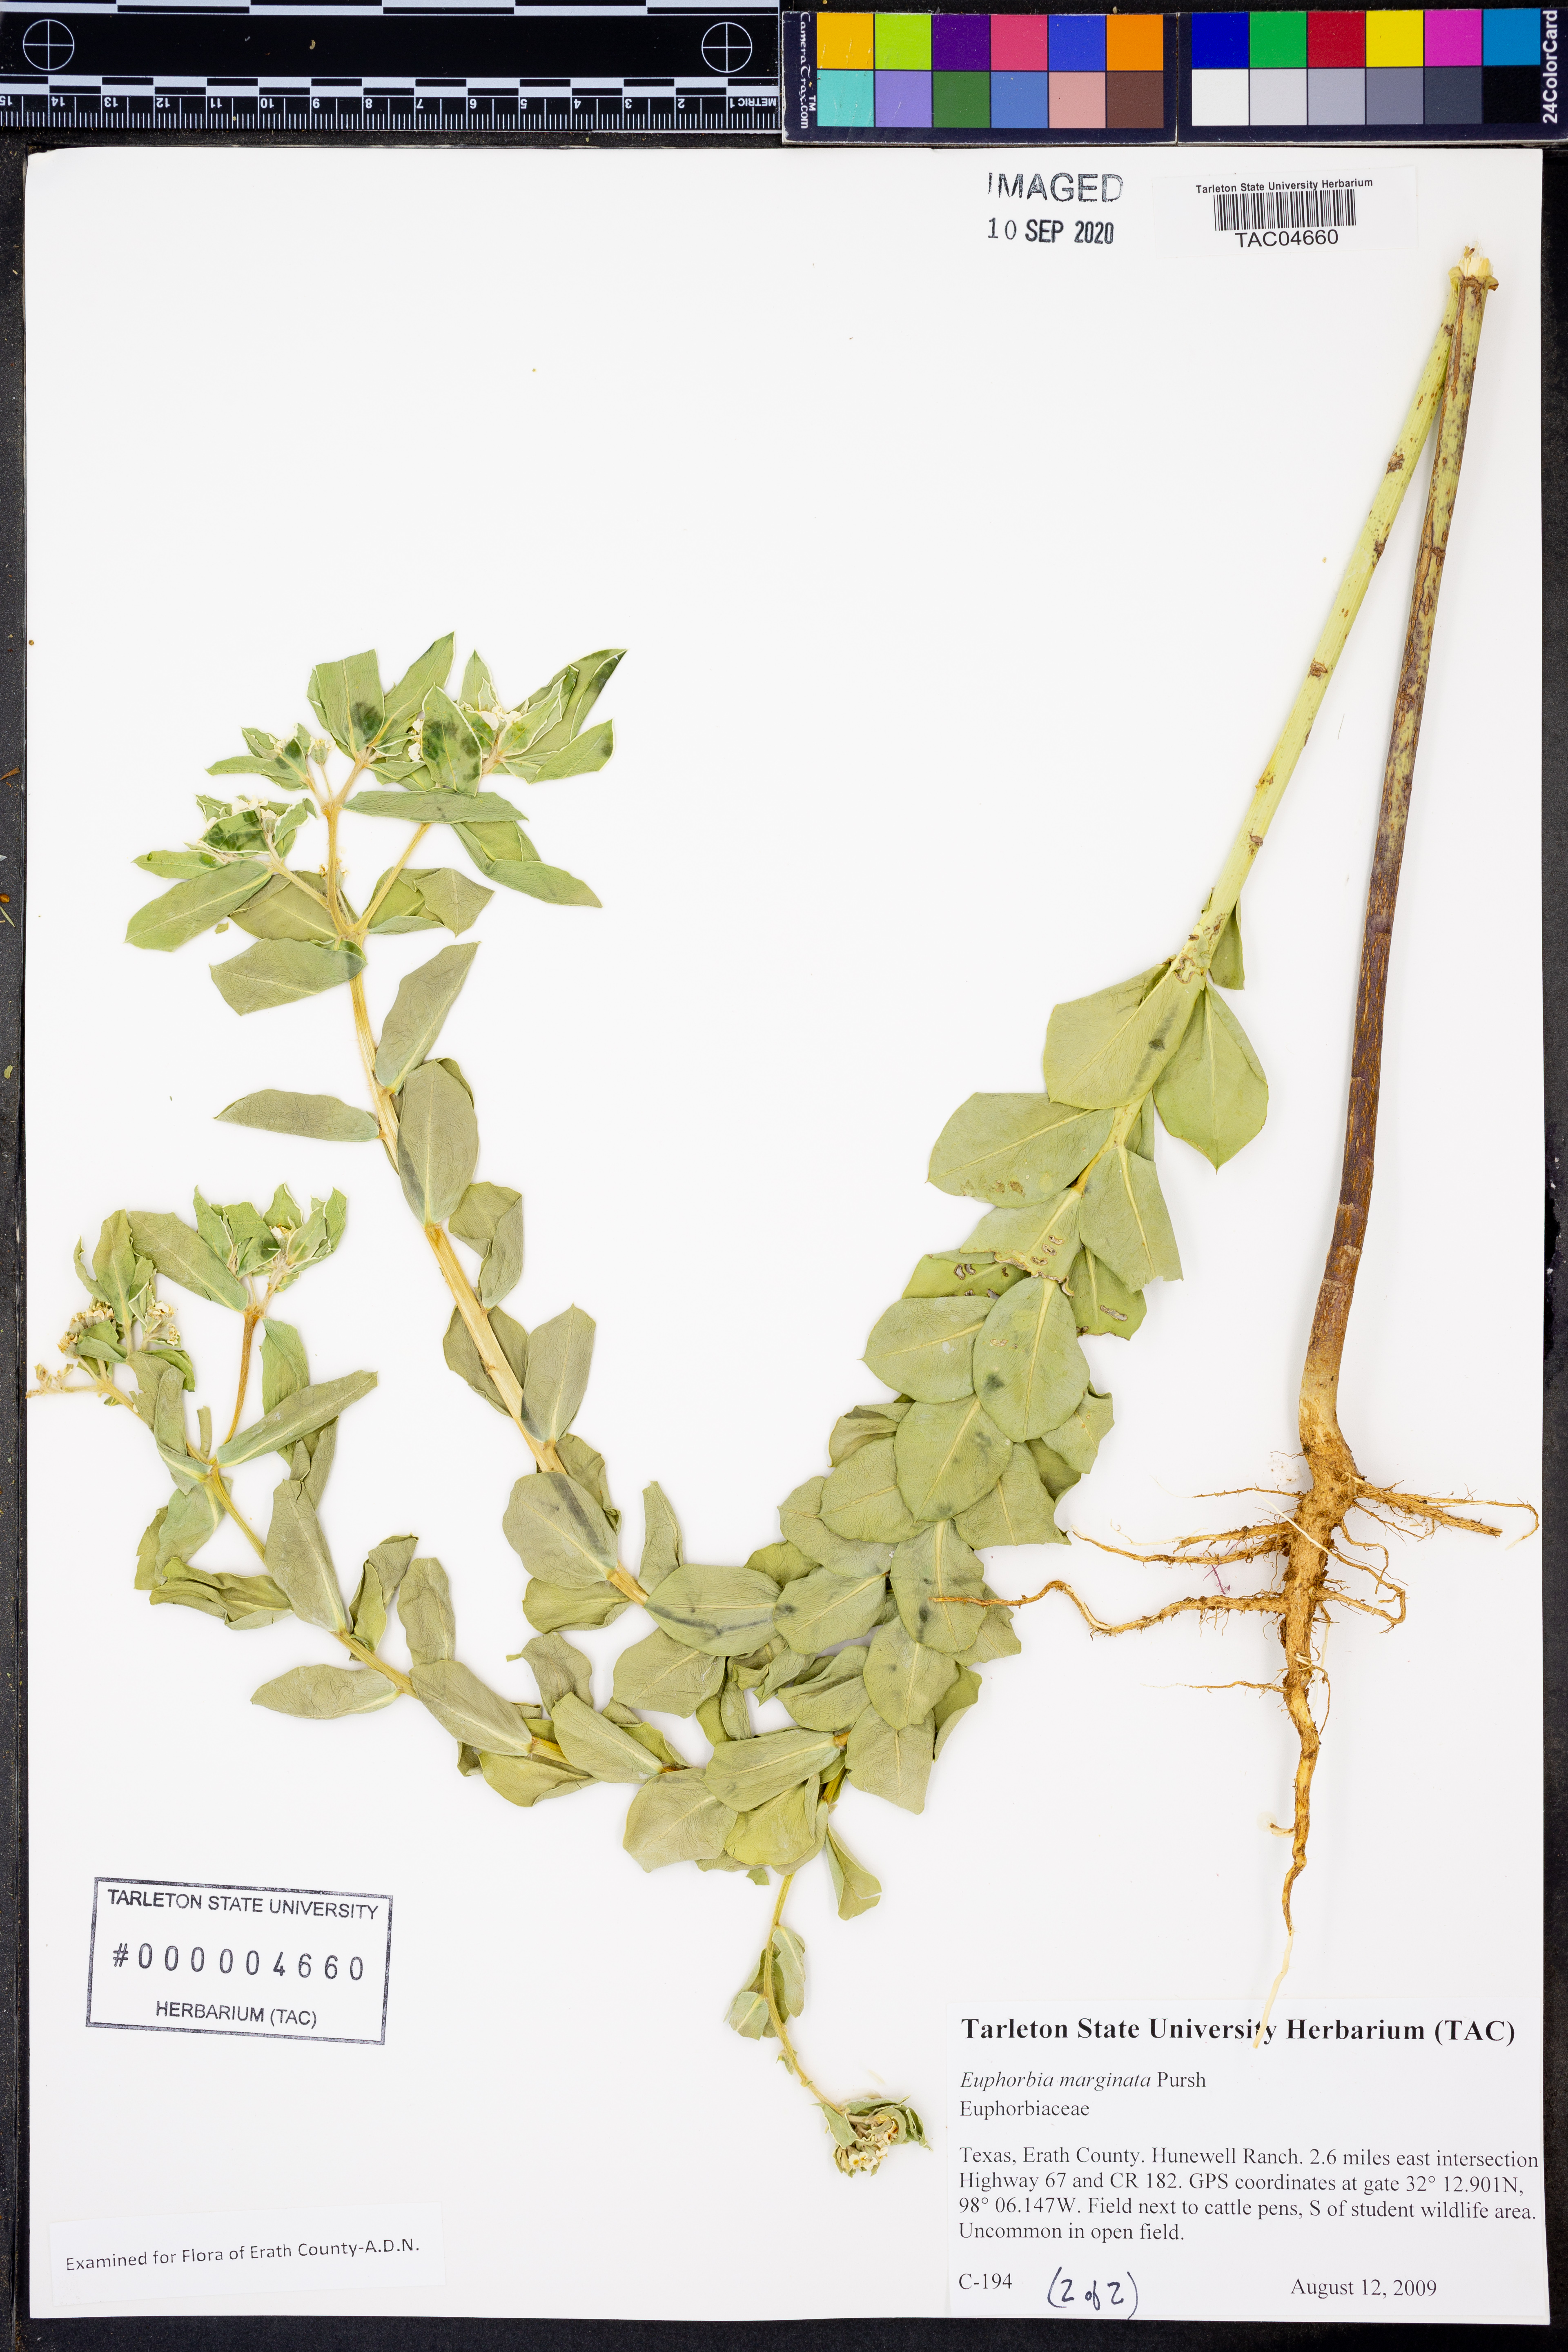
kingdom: Plantae
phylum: Tracheophyta
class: Magnoliopsida
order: Malpighiales
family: Euphorbiaceae
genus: Euphorbia
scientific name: Euphorbia marginata
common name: Ghostweed
